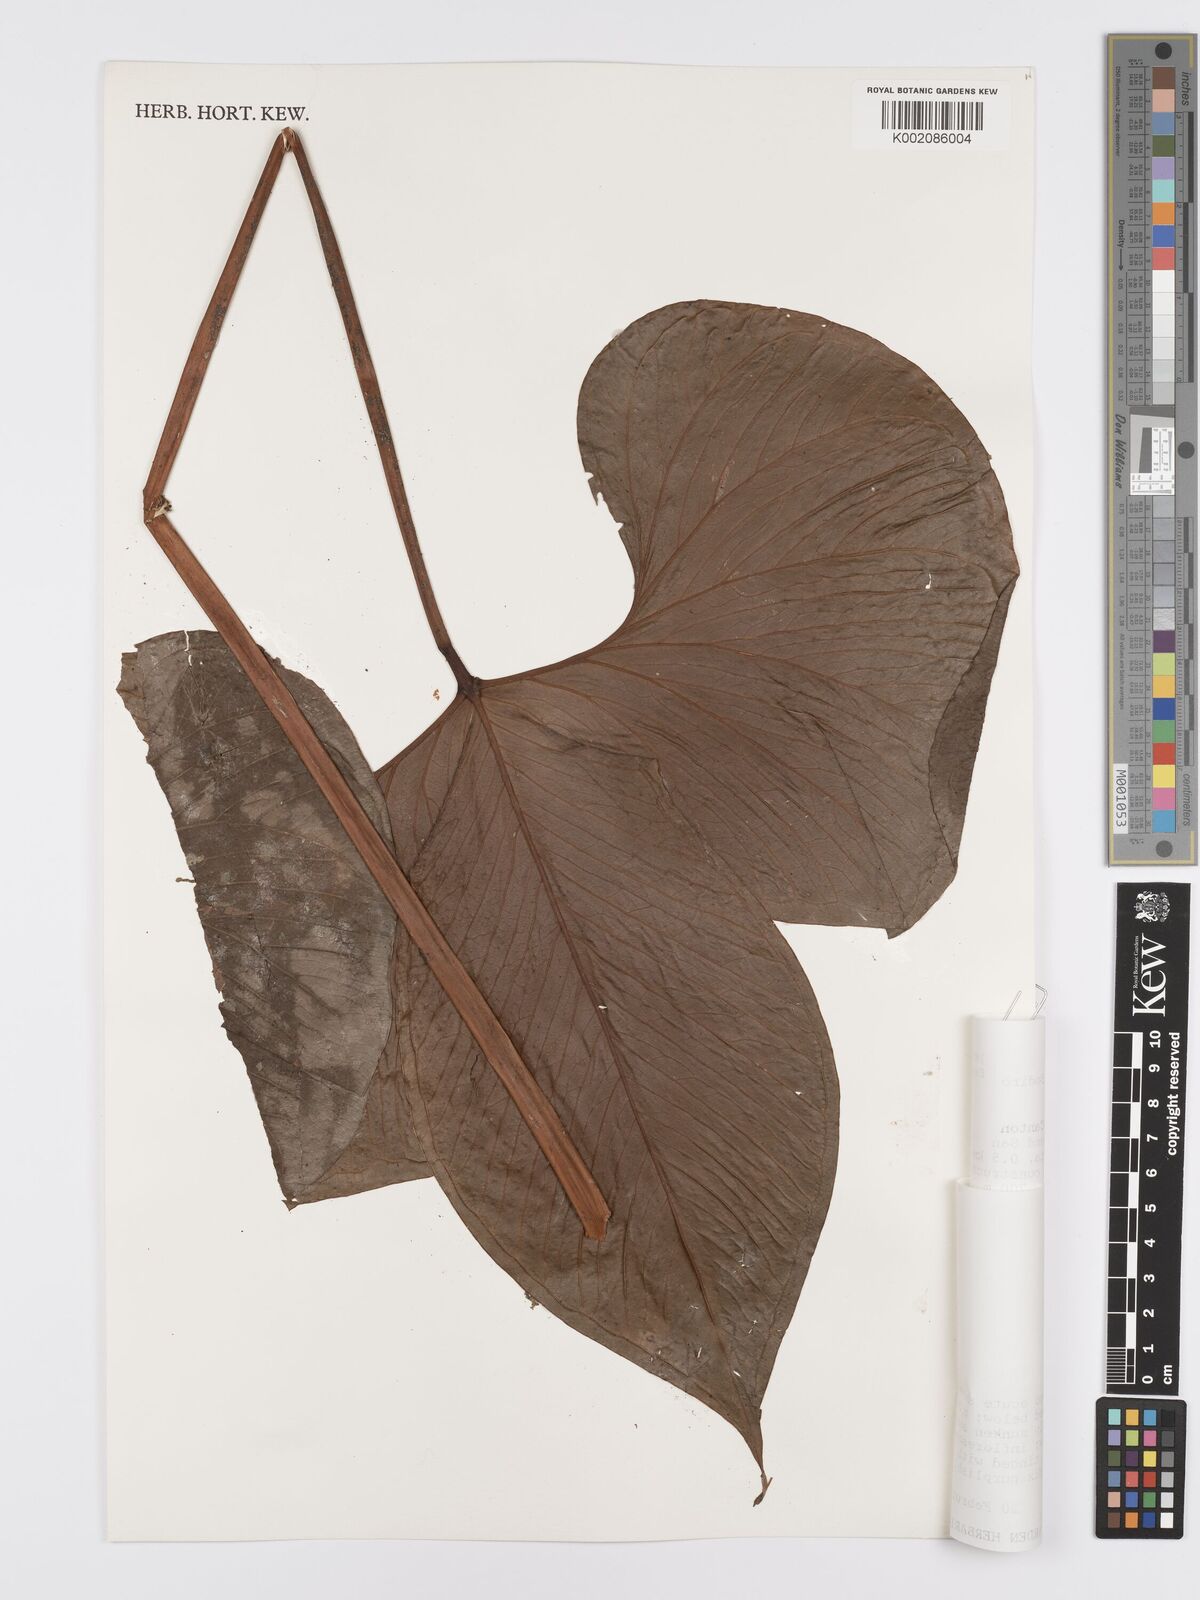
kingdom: Plantae
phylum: Tracheophyta
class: Liliopsida
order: Alismatales
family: Araceae
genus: Anthurium
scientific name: Anthurium draconopterum
